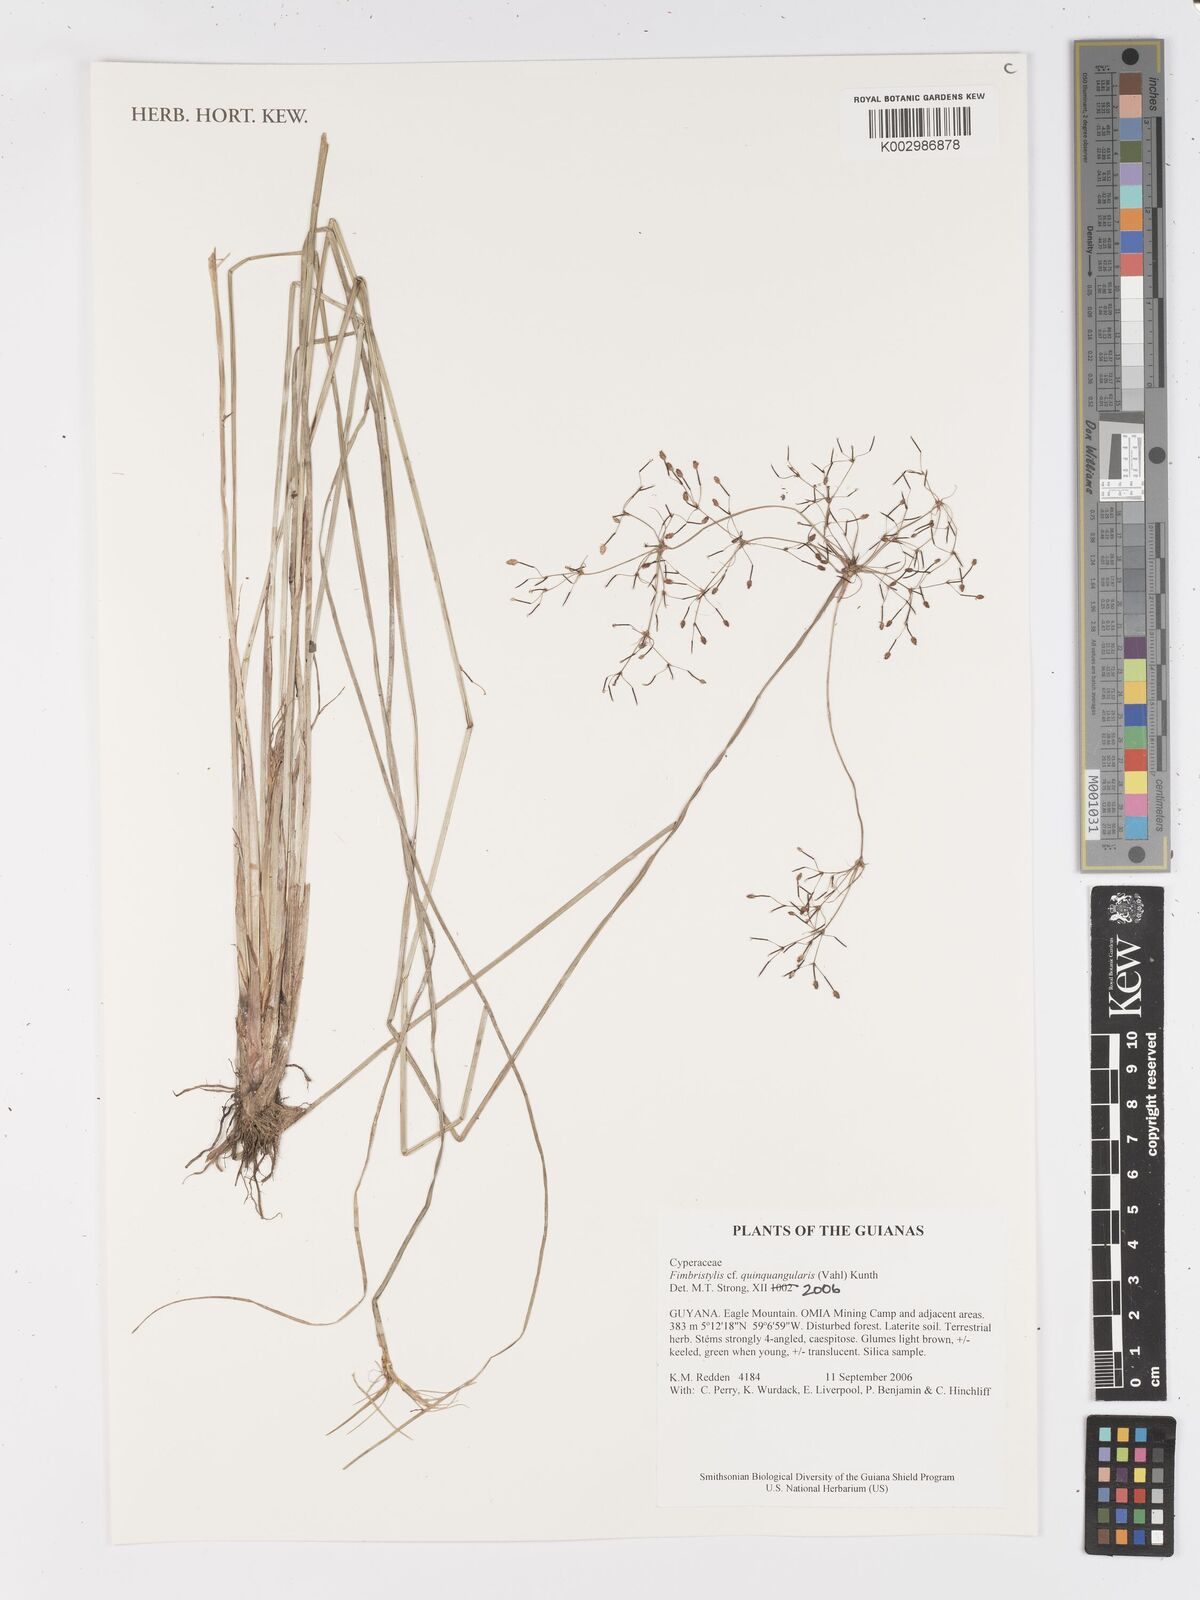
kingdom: Plantae
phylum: Tracheophyta
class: Liliopsida
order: Poales
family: Cyperaceae
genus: Fimbristylis
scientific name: Fimbristylis quinquangularis
